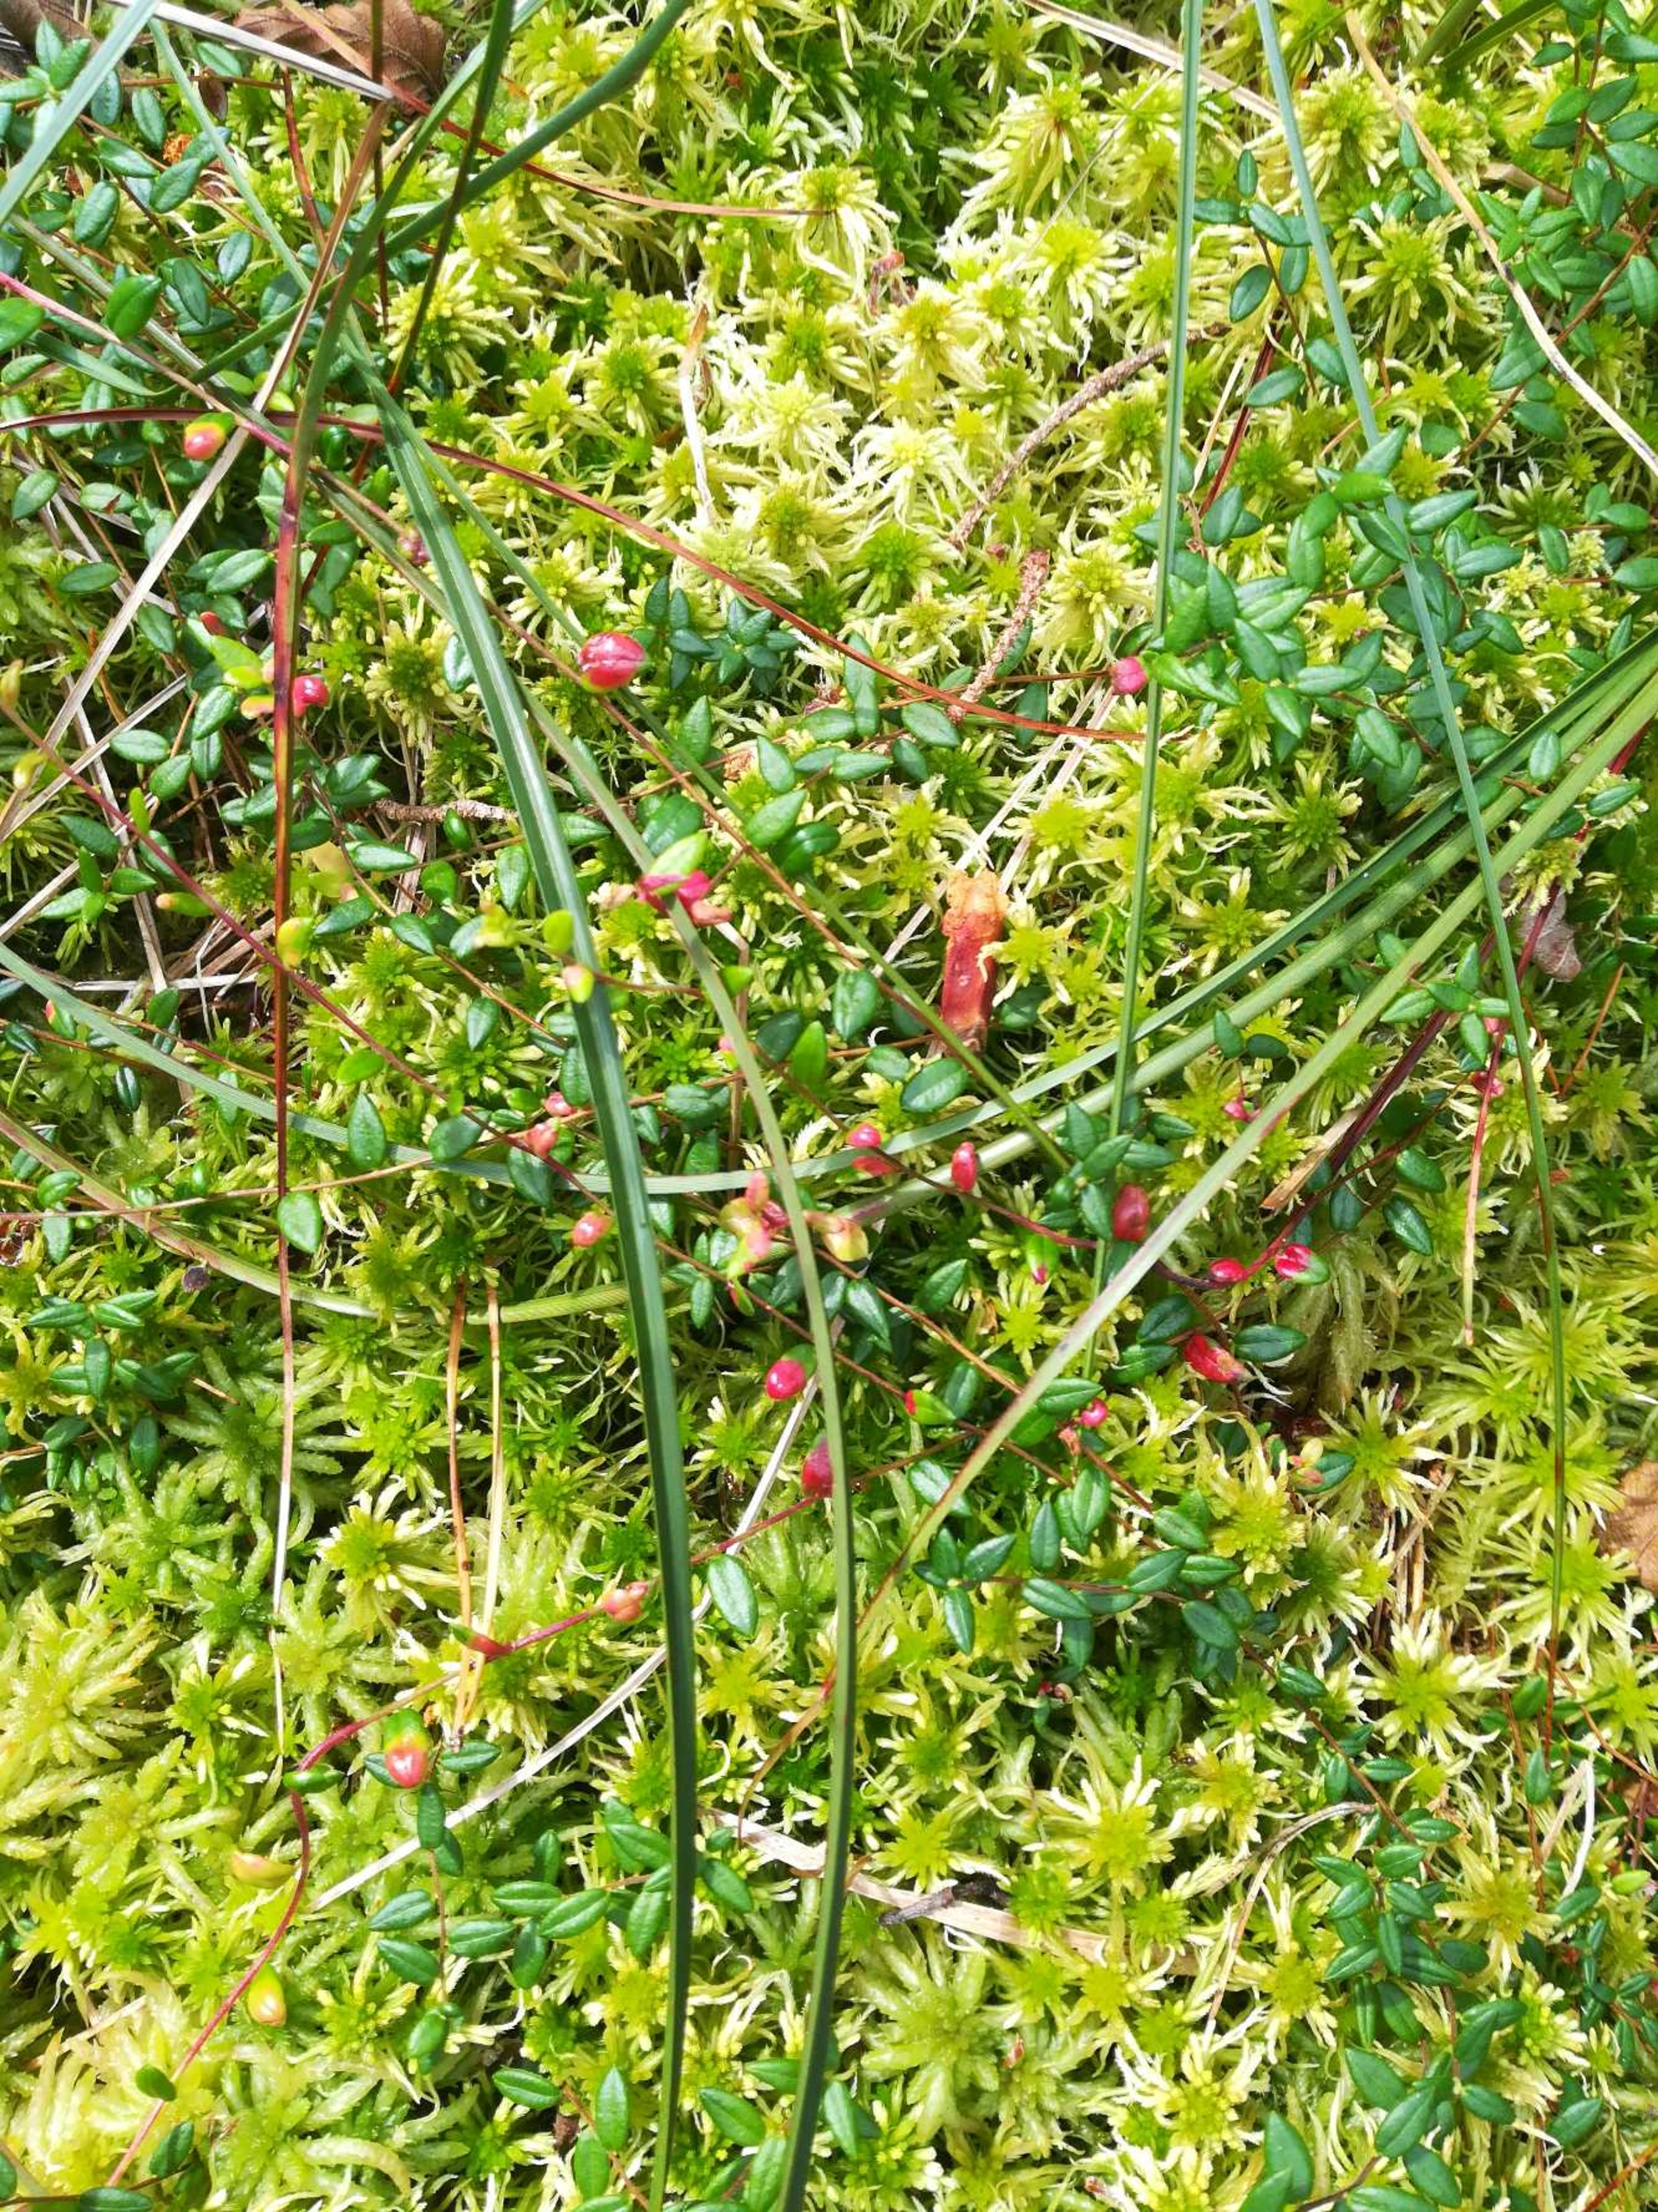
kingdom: Plantae
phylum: Tracheophyta
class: Magnoliopsida
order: Ericales
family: Ericaceae
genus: Vaccinium
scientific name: Vaccinium oxycoccos
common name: Tranebær
